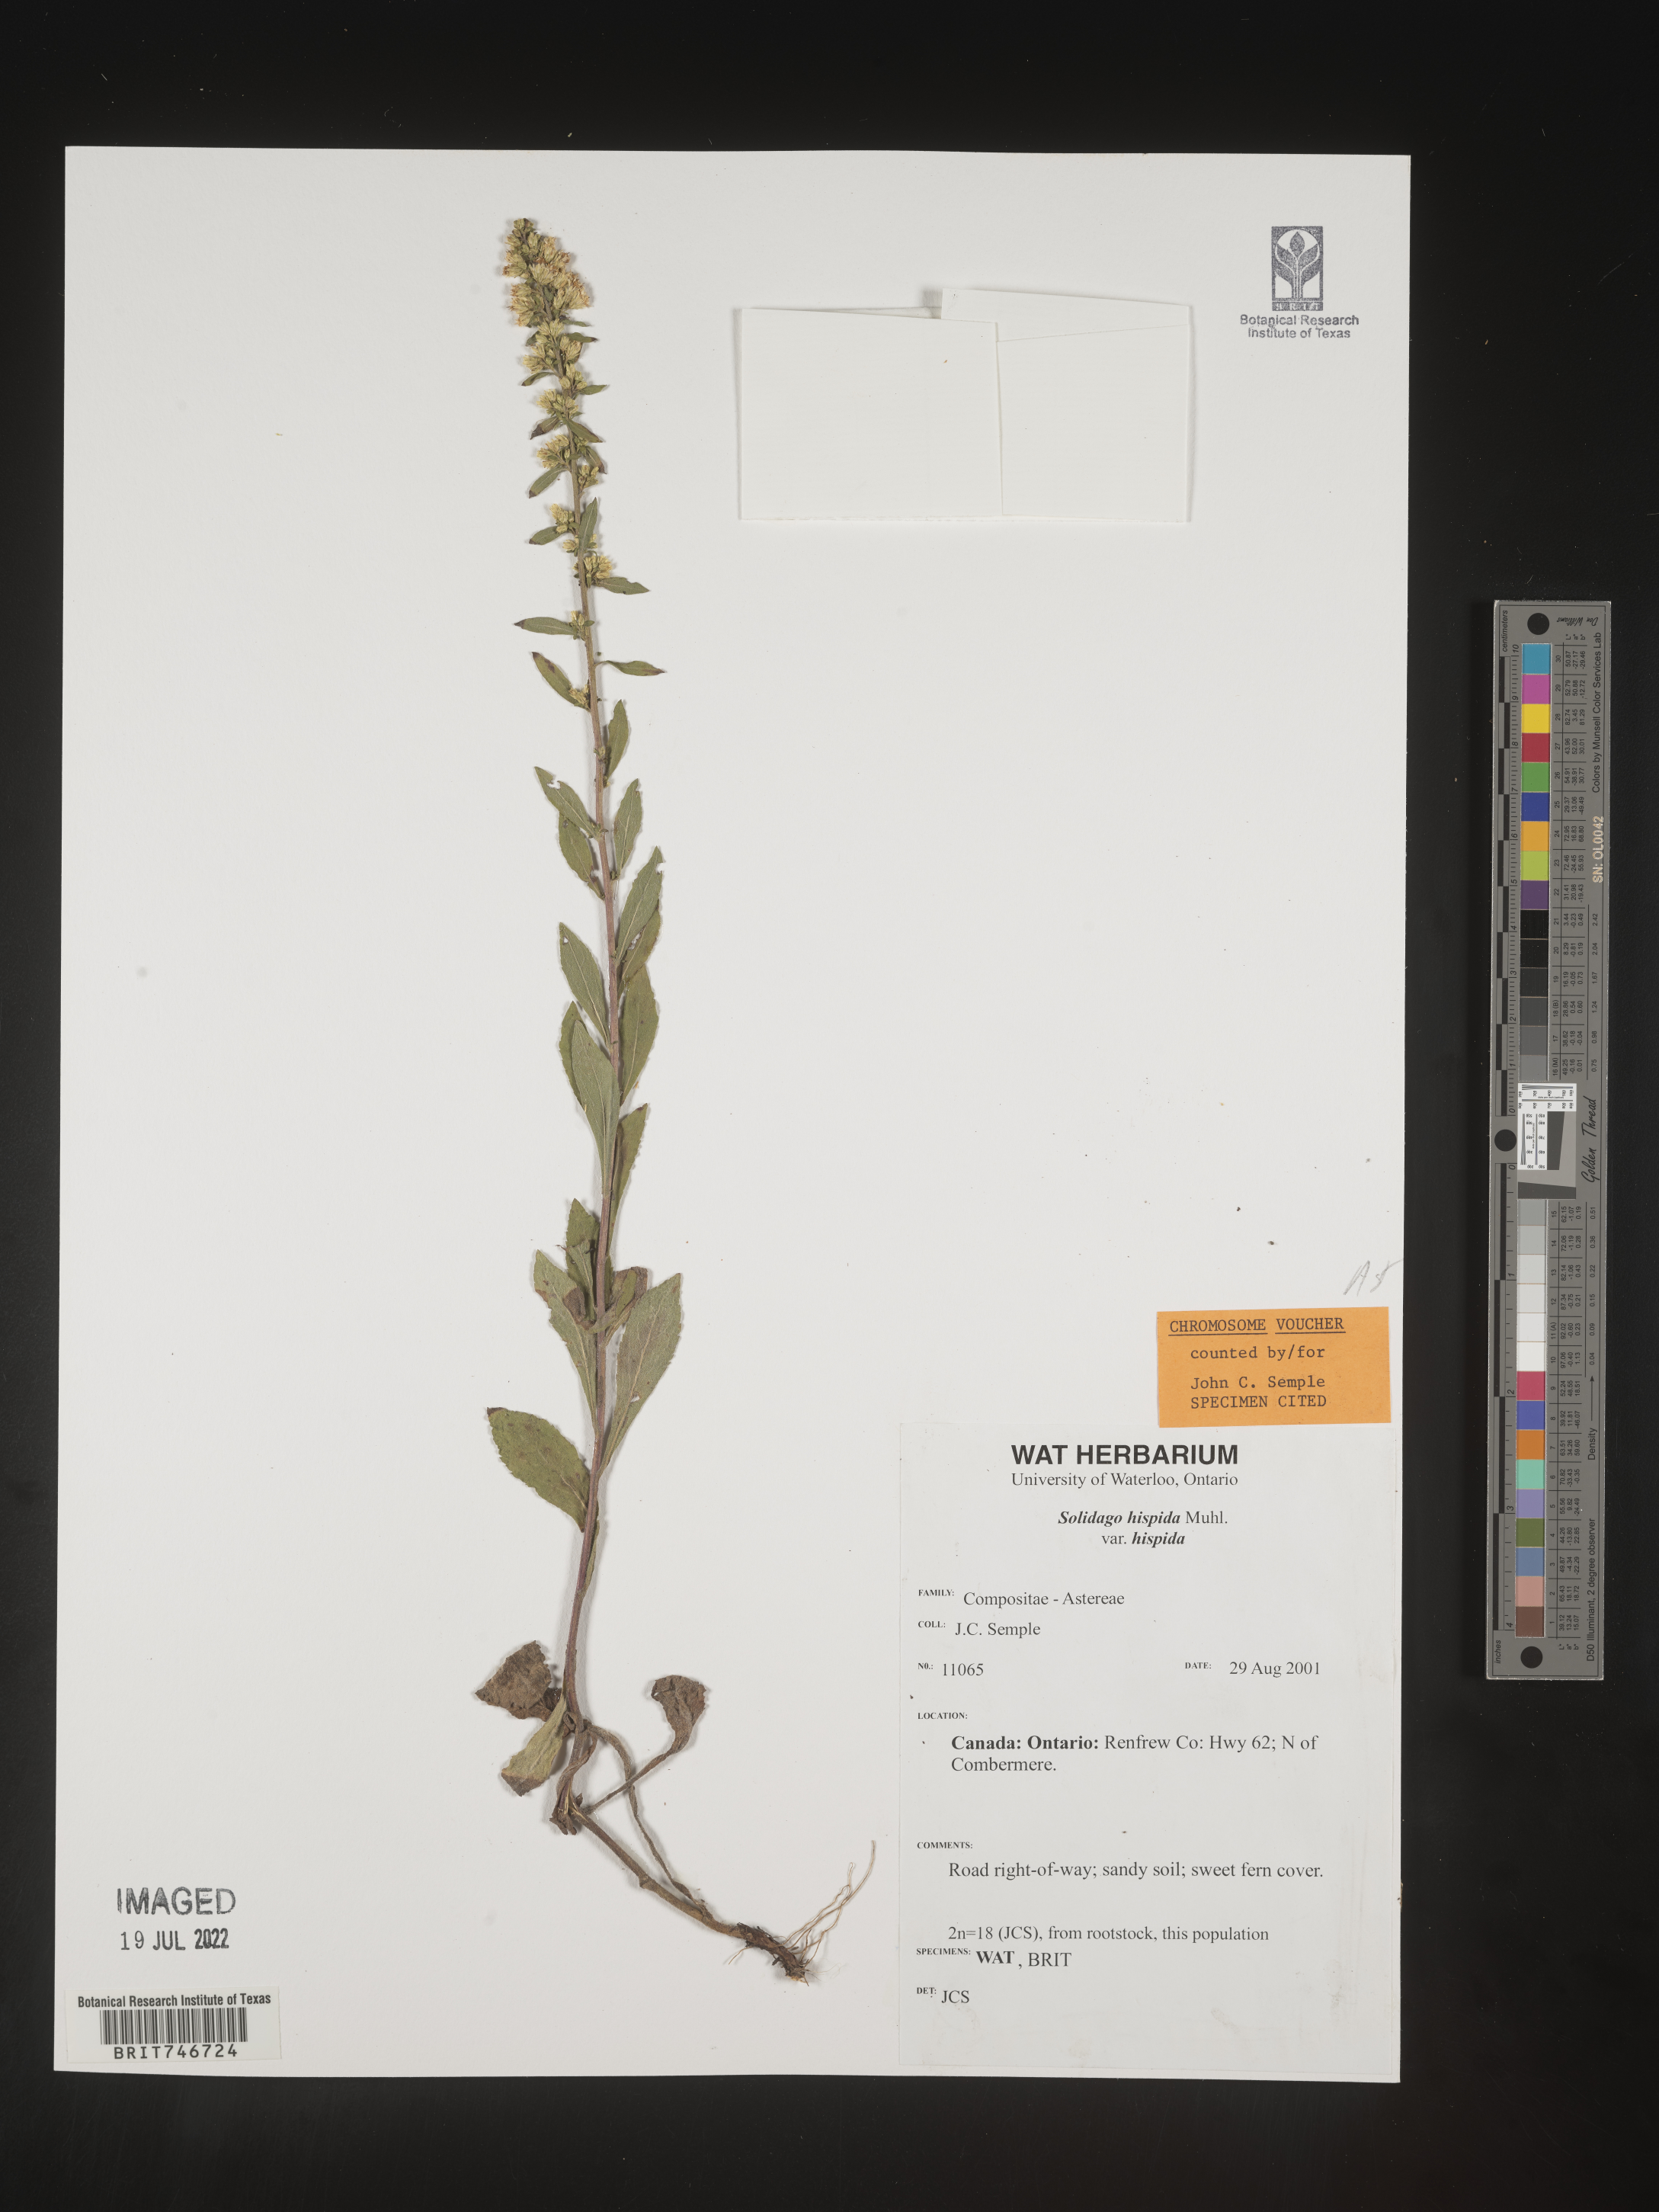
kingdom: Plantae
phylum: Tracheophyta
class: Magnoliopsida
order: Asterales
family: Asteraceae
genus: Solidago
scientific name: Solidago hispida
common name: Hairy goldenrod
